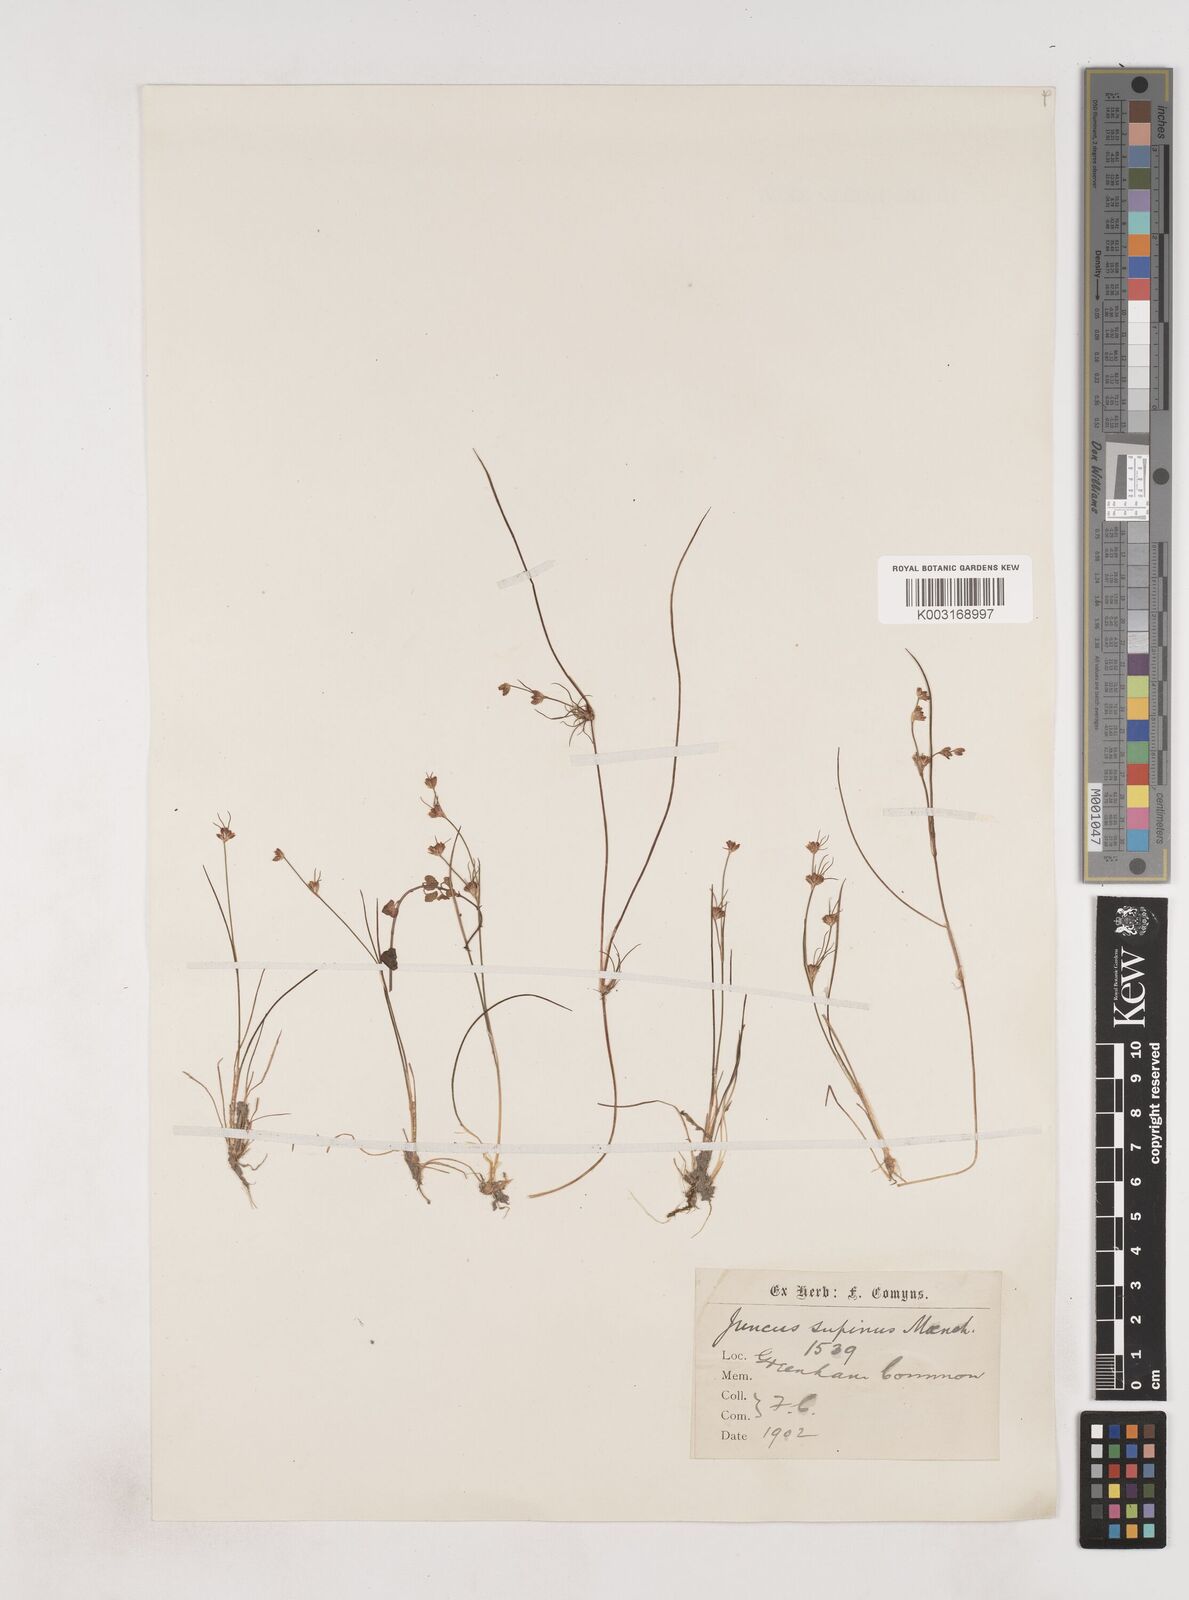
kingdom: Plantae
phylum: Tracheophyta
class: Liliopsida
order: Poales
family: Juncaceae
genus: Juncus
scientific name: Juncus bulbosus
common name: Bulbous rush
